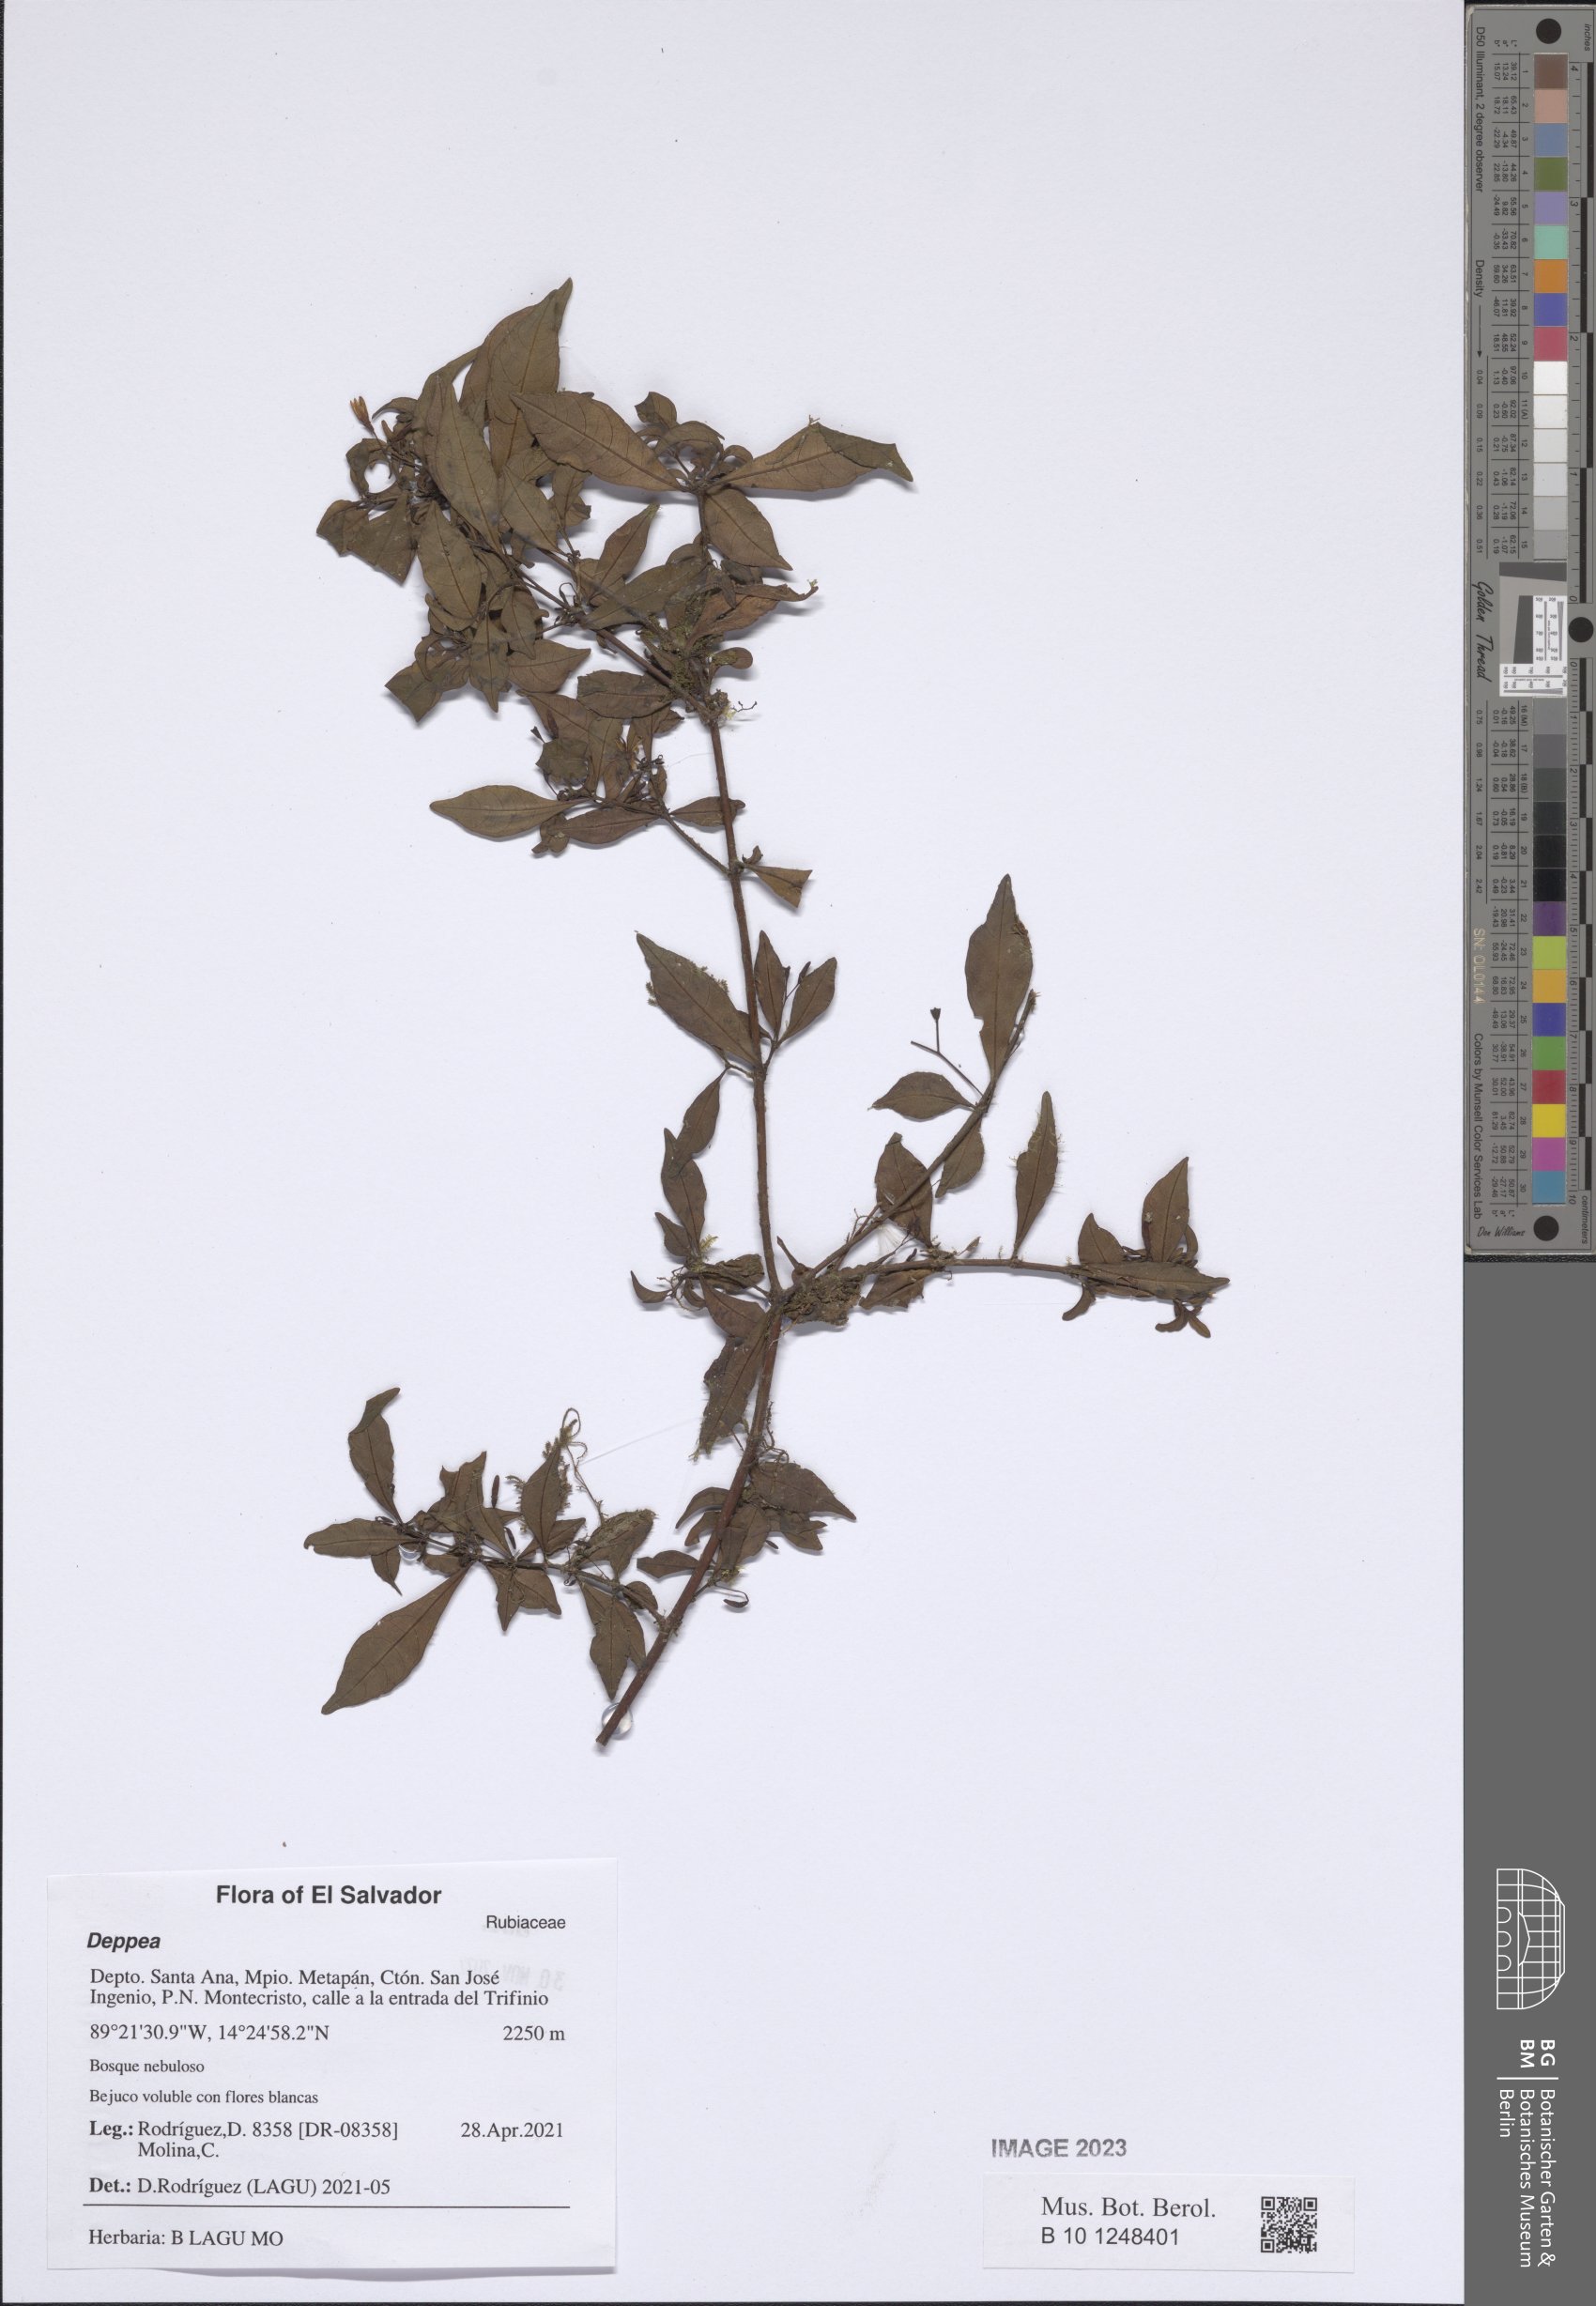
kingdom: Plantae
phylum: Tracheophyta
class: Magnoliopsida
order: Gentianales
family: Rubiaceae
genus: Deppea
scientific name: Deppea
